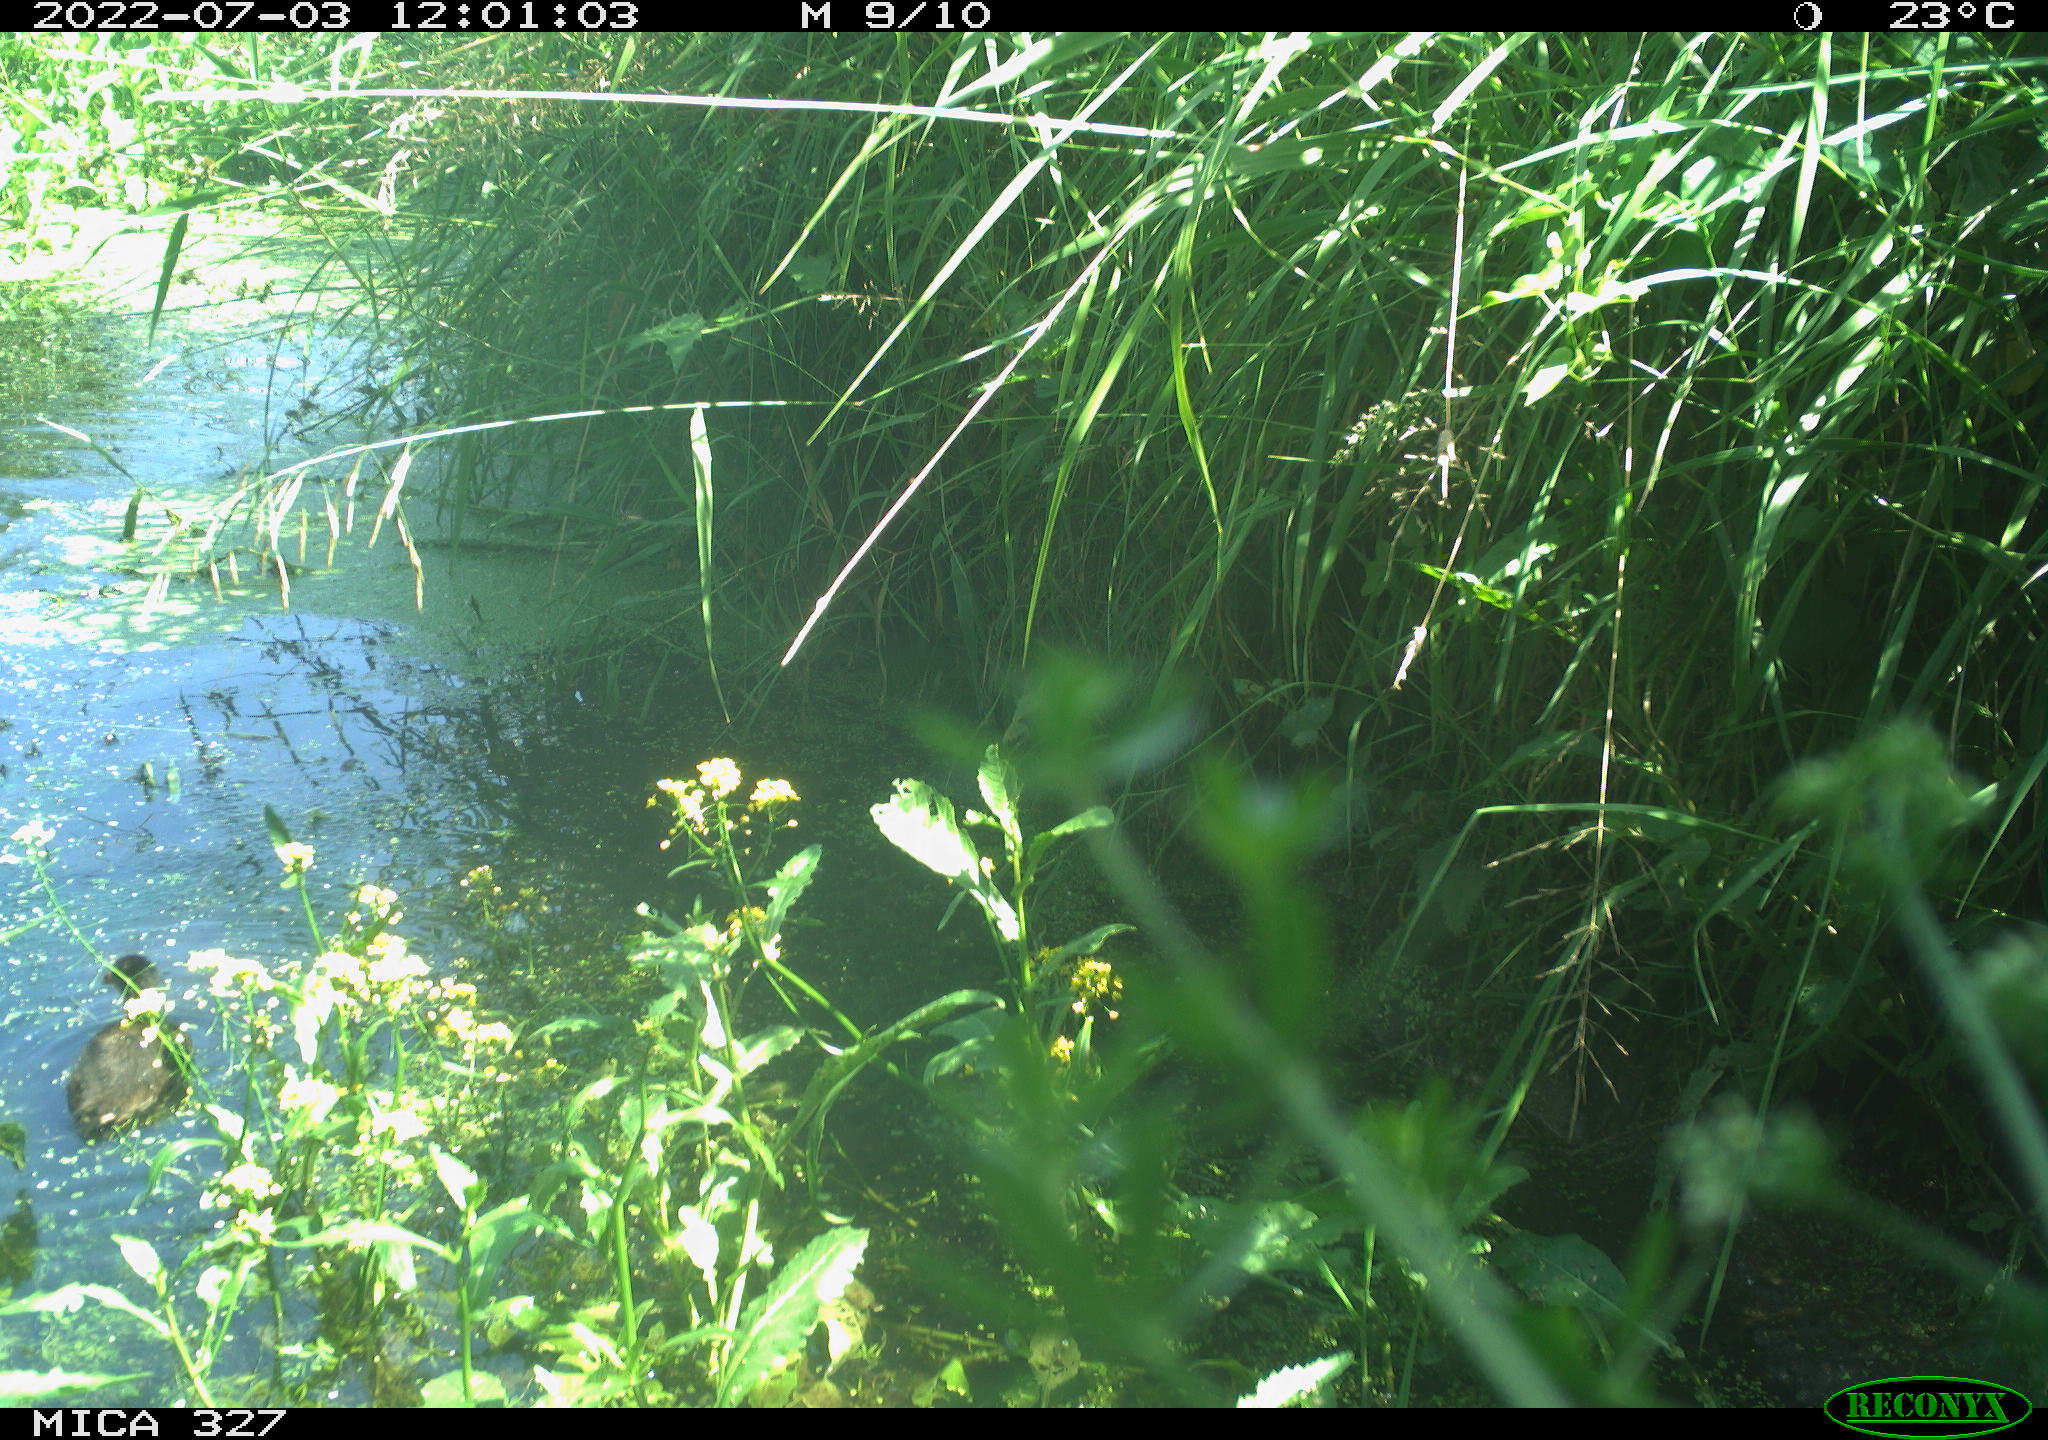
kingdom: Animalia
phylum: Chordata
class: Aves
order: Gruiformes
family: Rallidae
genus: Gallinula
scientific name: Gallinula chloropus
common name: Common moorhen
